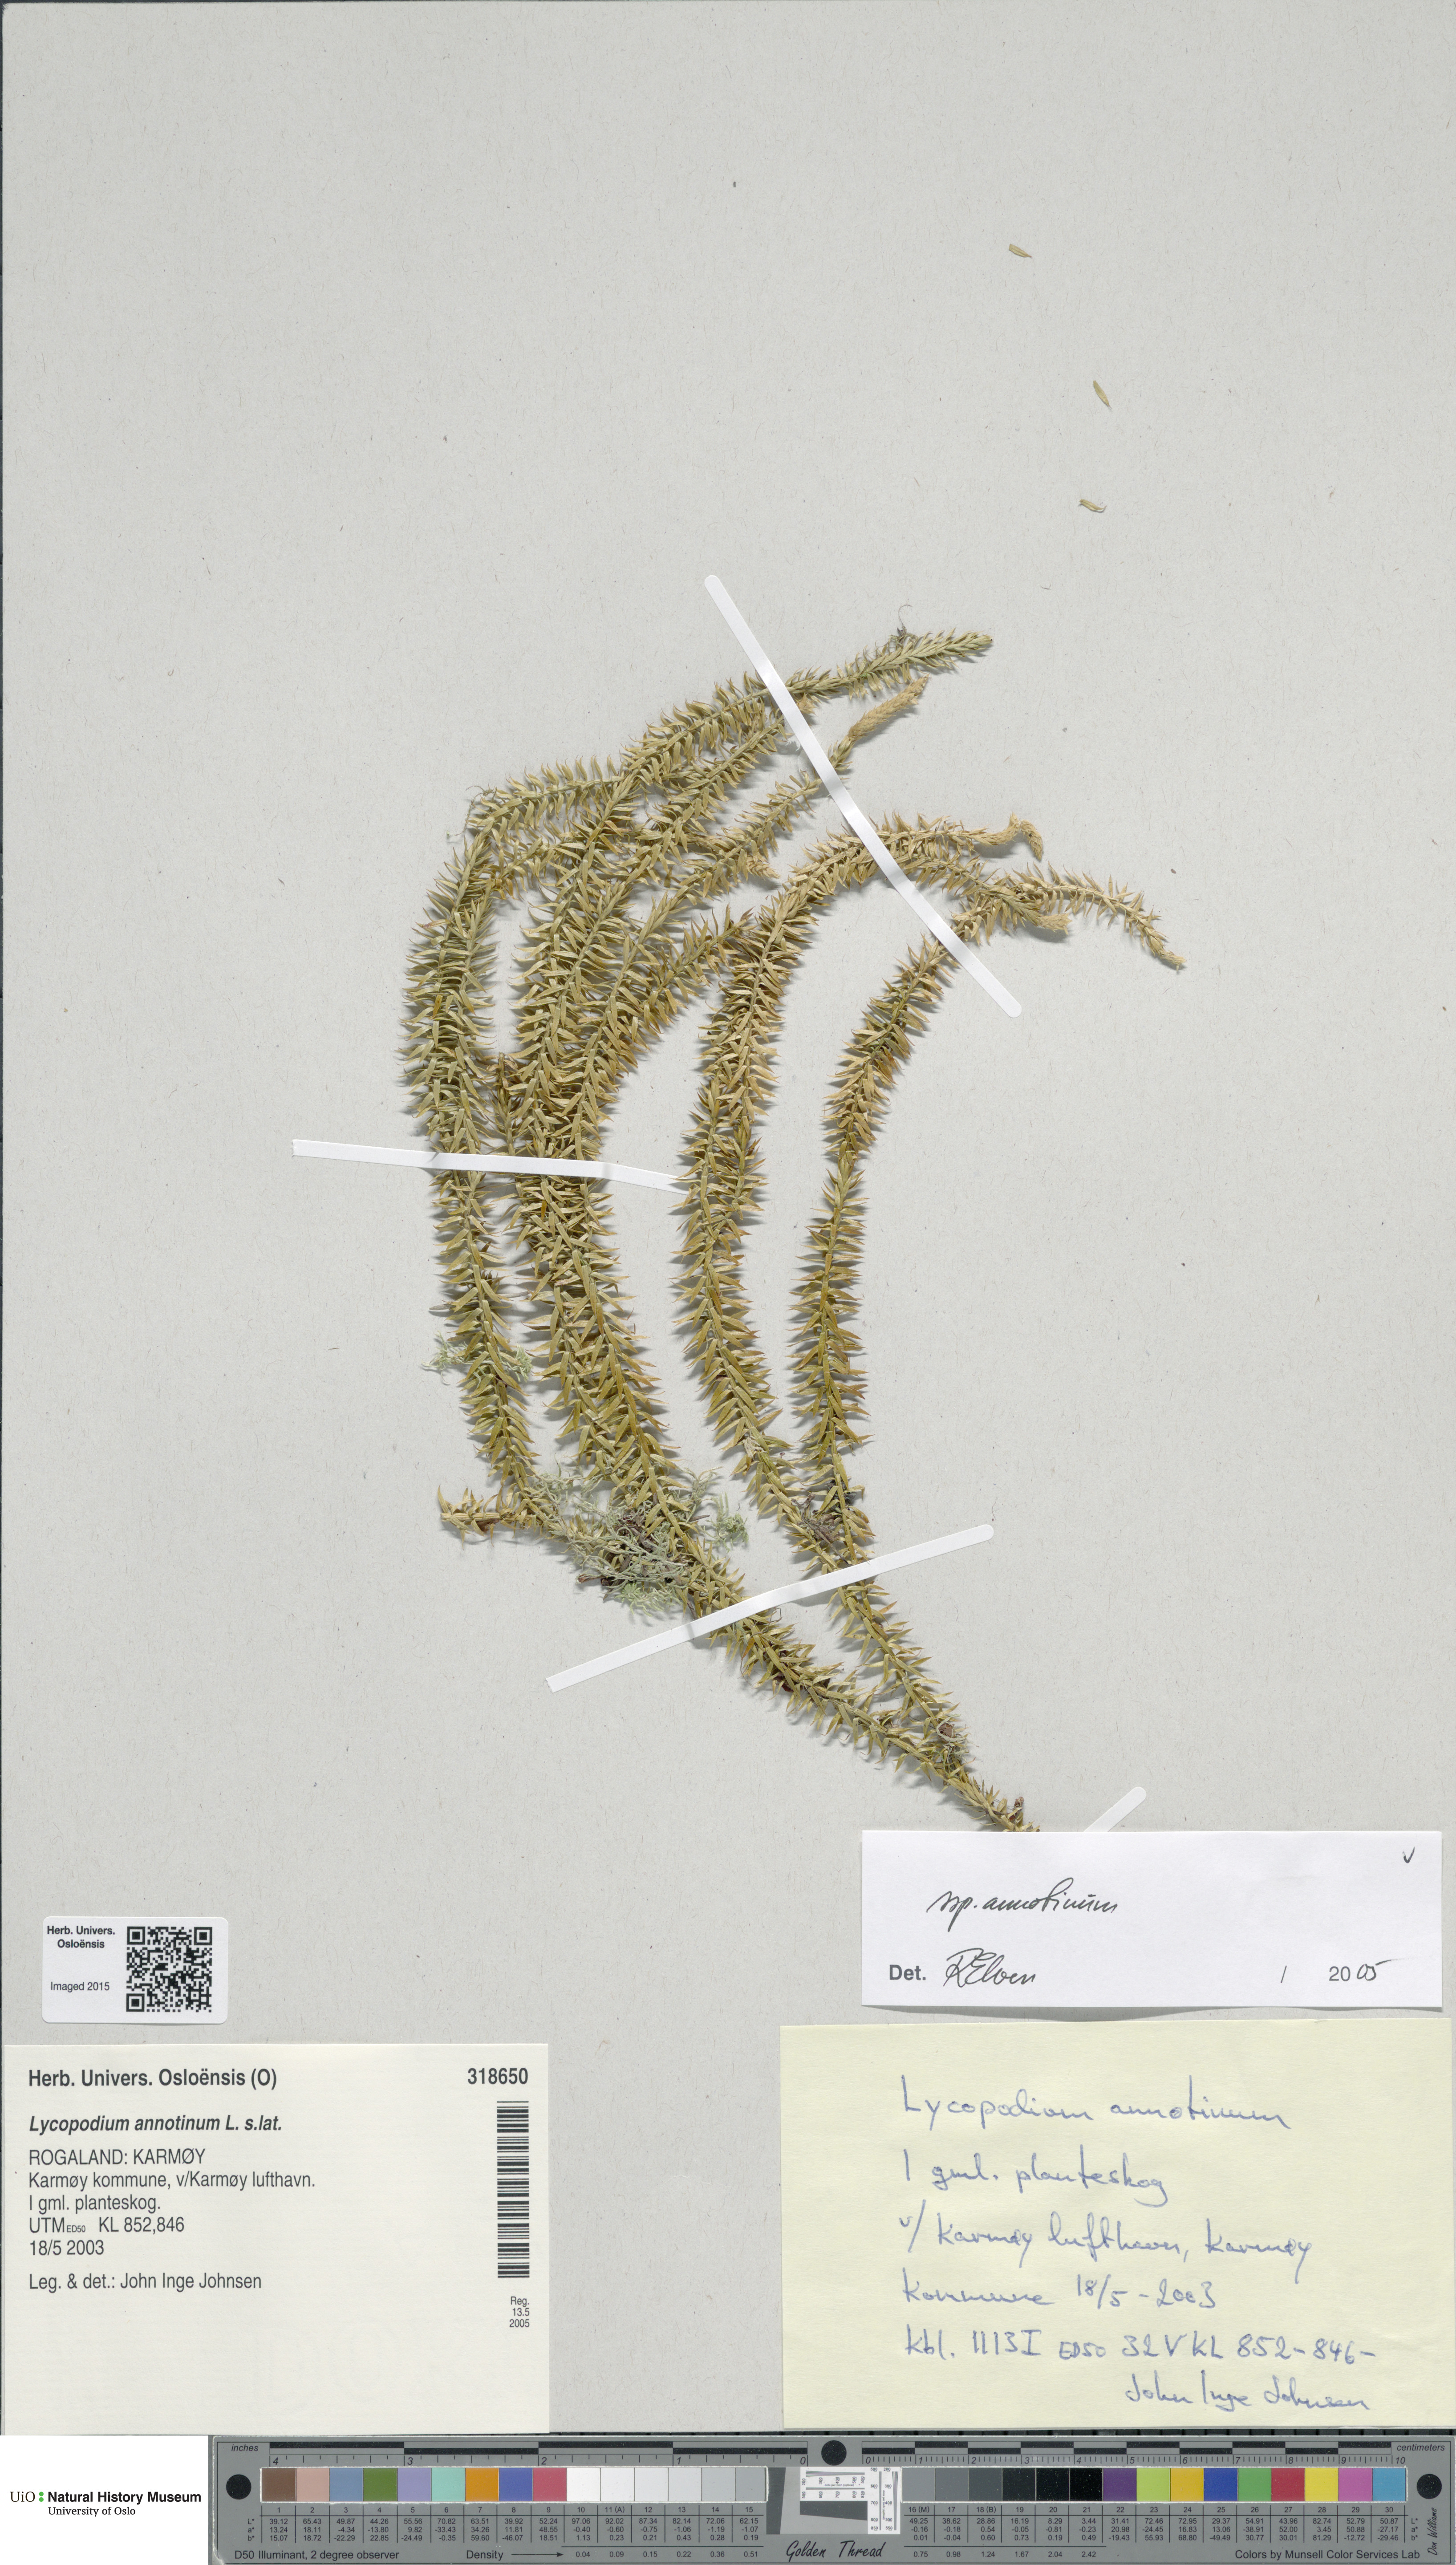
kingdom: Plantae
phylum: Tracheophyta
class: Lycopodiopsida
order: Lycopodiales
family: Lycopodiaceae
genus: Spinulum
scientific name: Spinulum annotinum
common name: Interrupted club-moss
